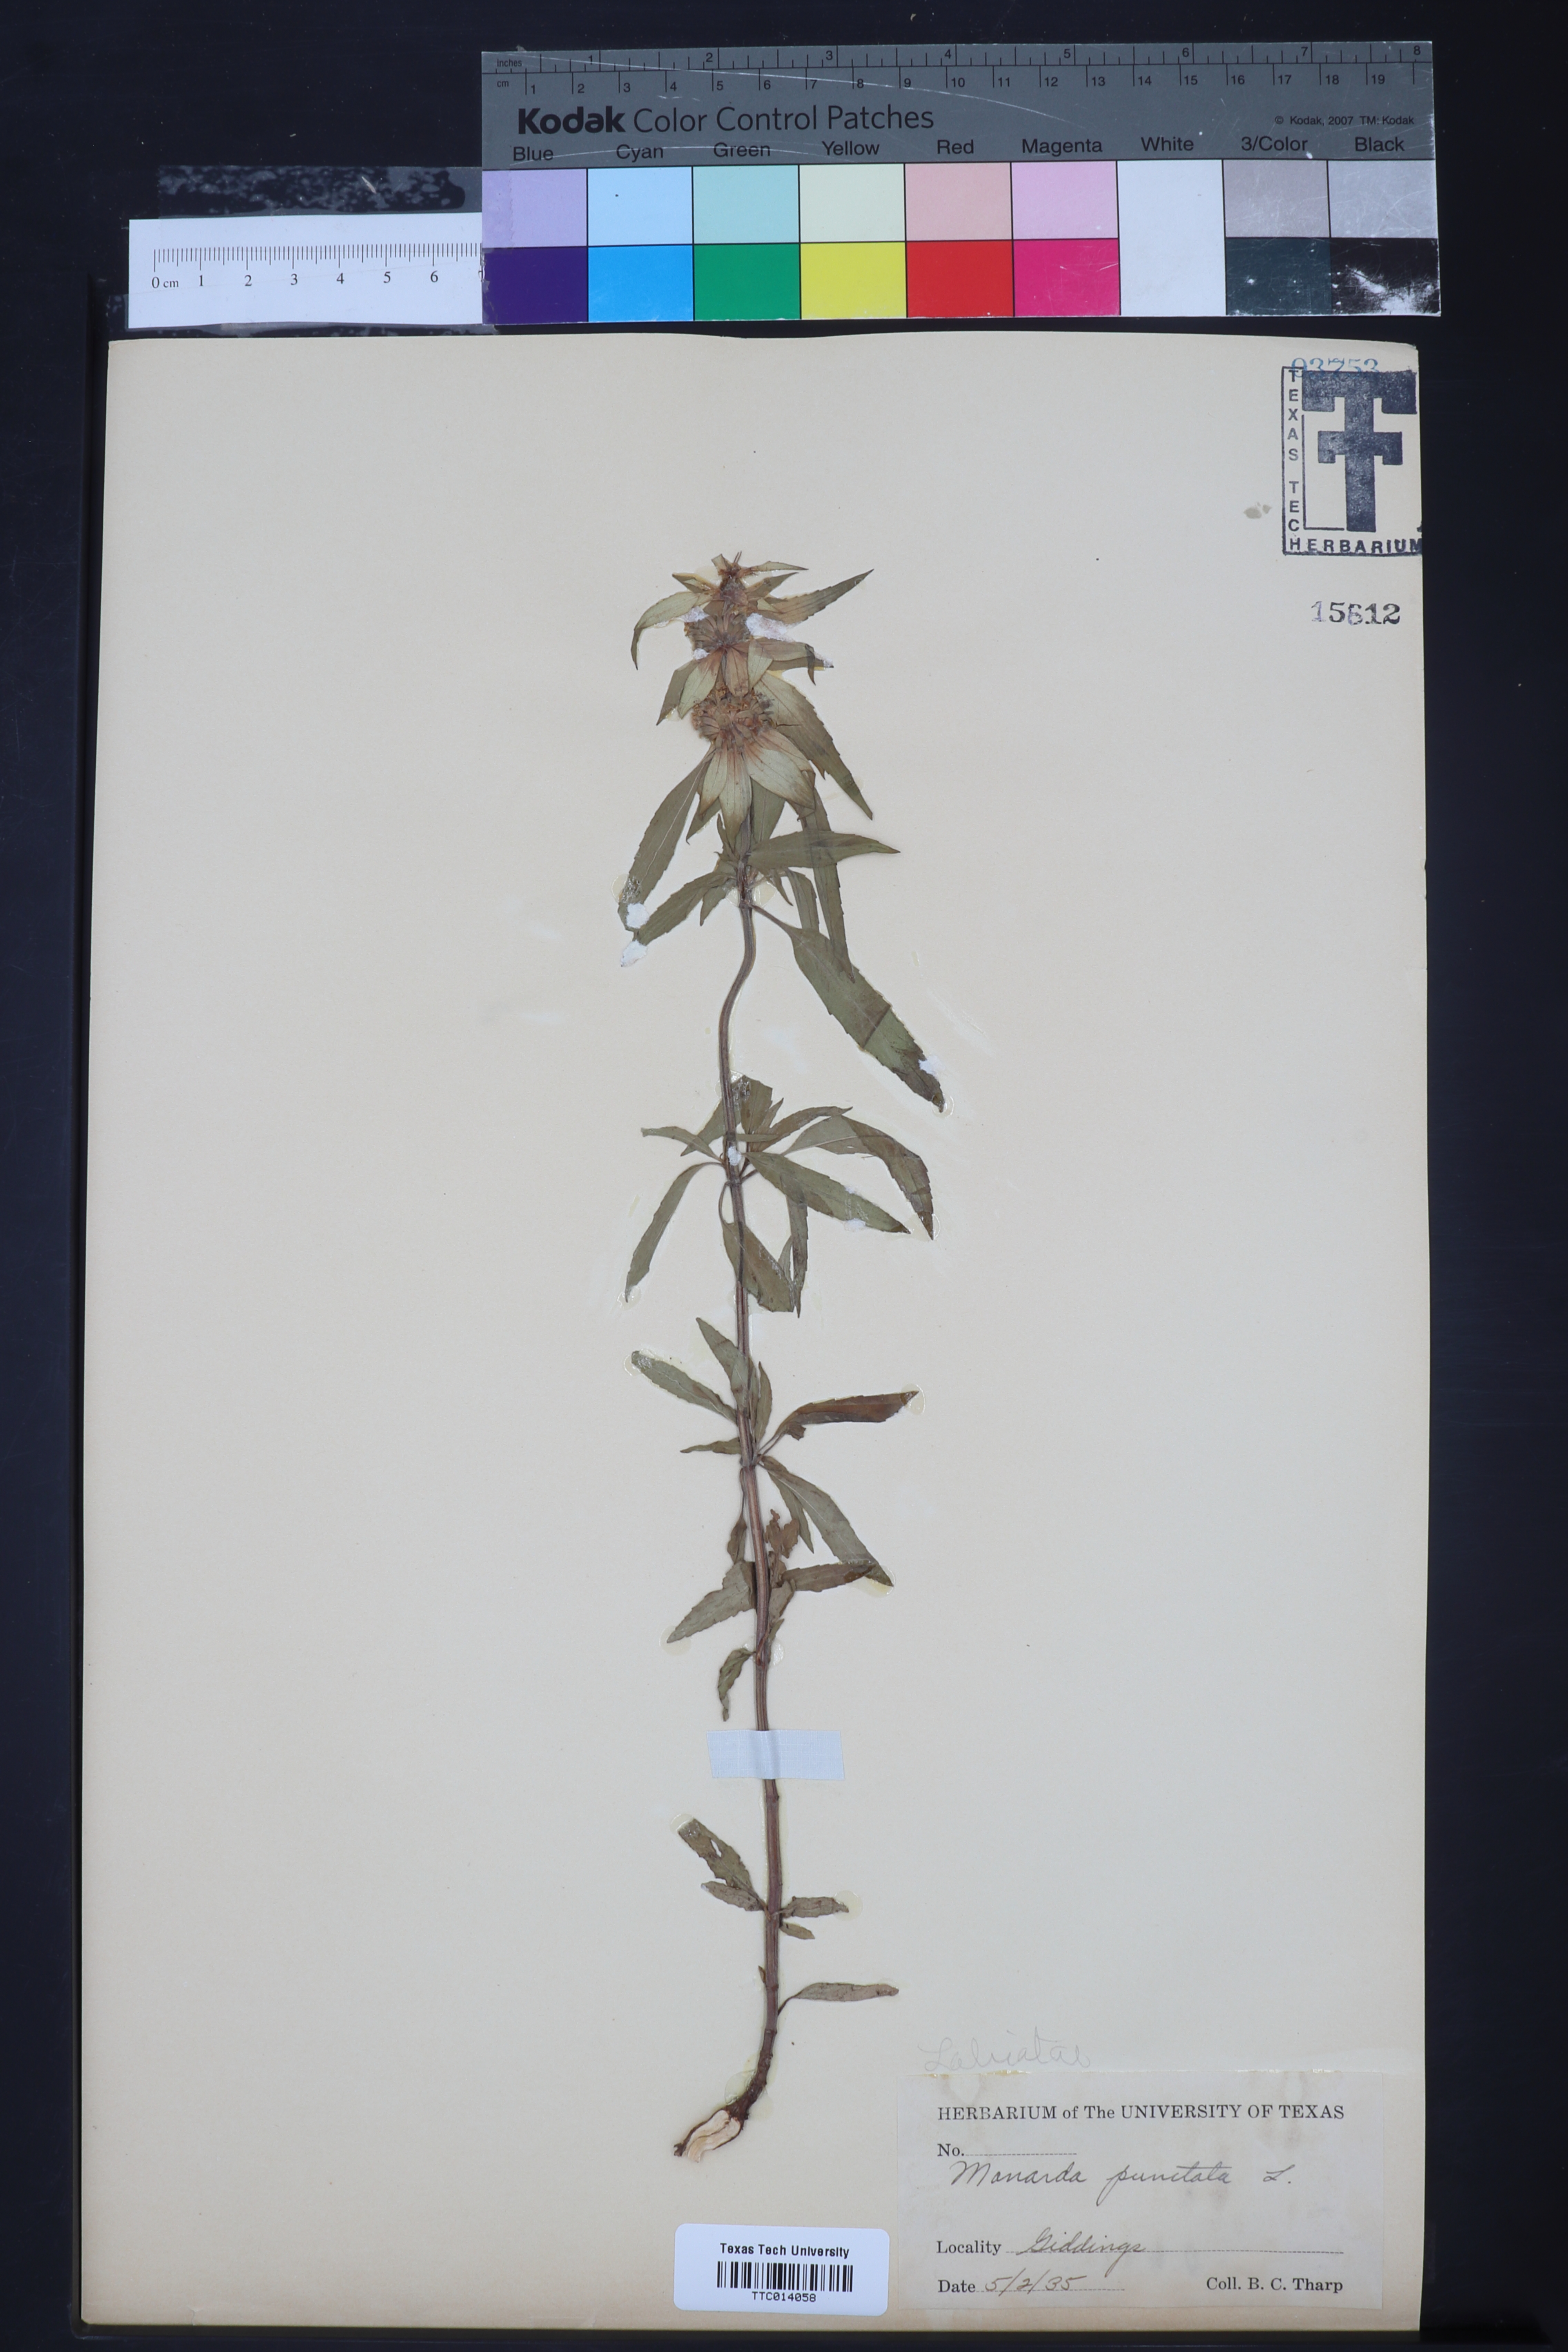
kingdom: Plantae
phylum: Tracheophyta
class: Magnoliopsida
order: Lamiales
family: Lamiaceae
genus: Monarda
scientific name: Monarda punctata
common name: Dotted monarda
